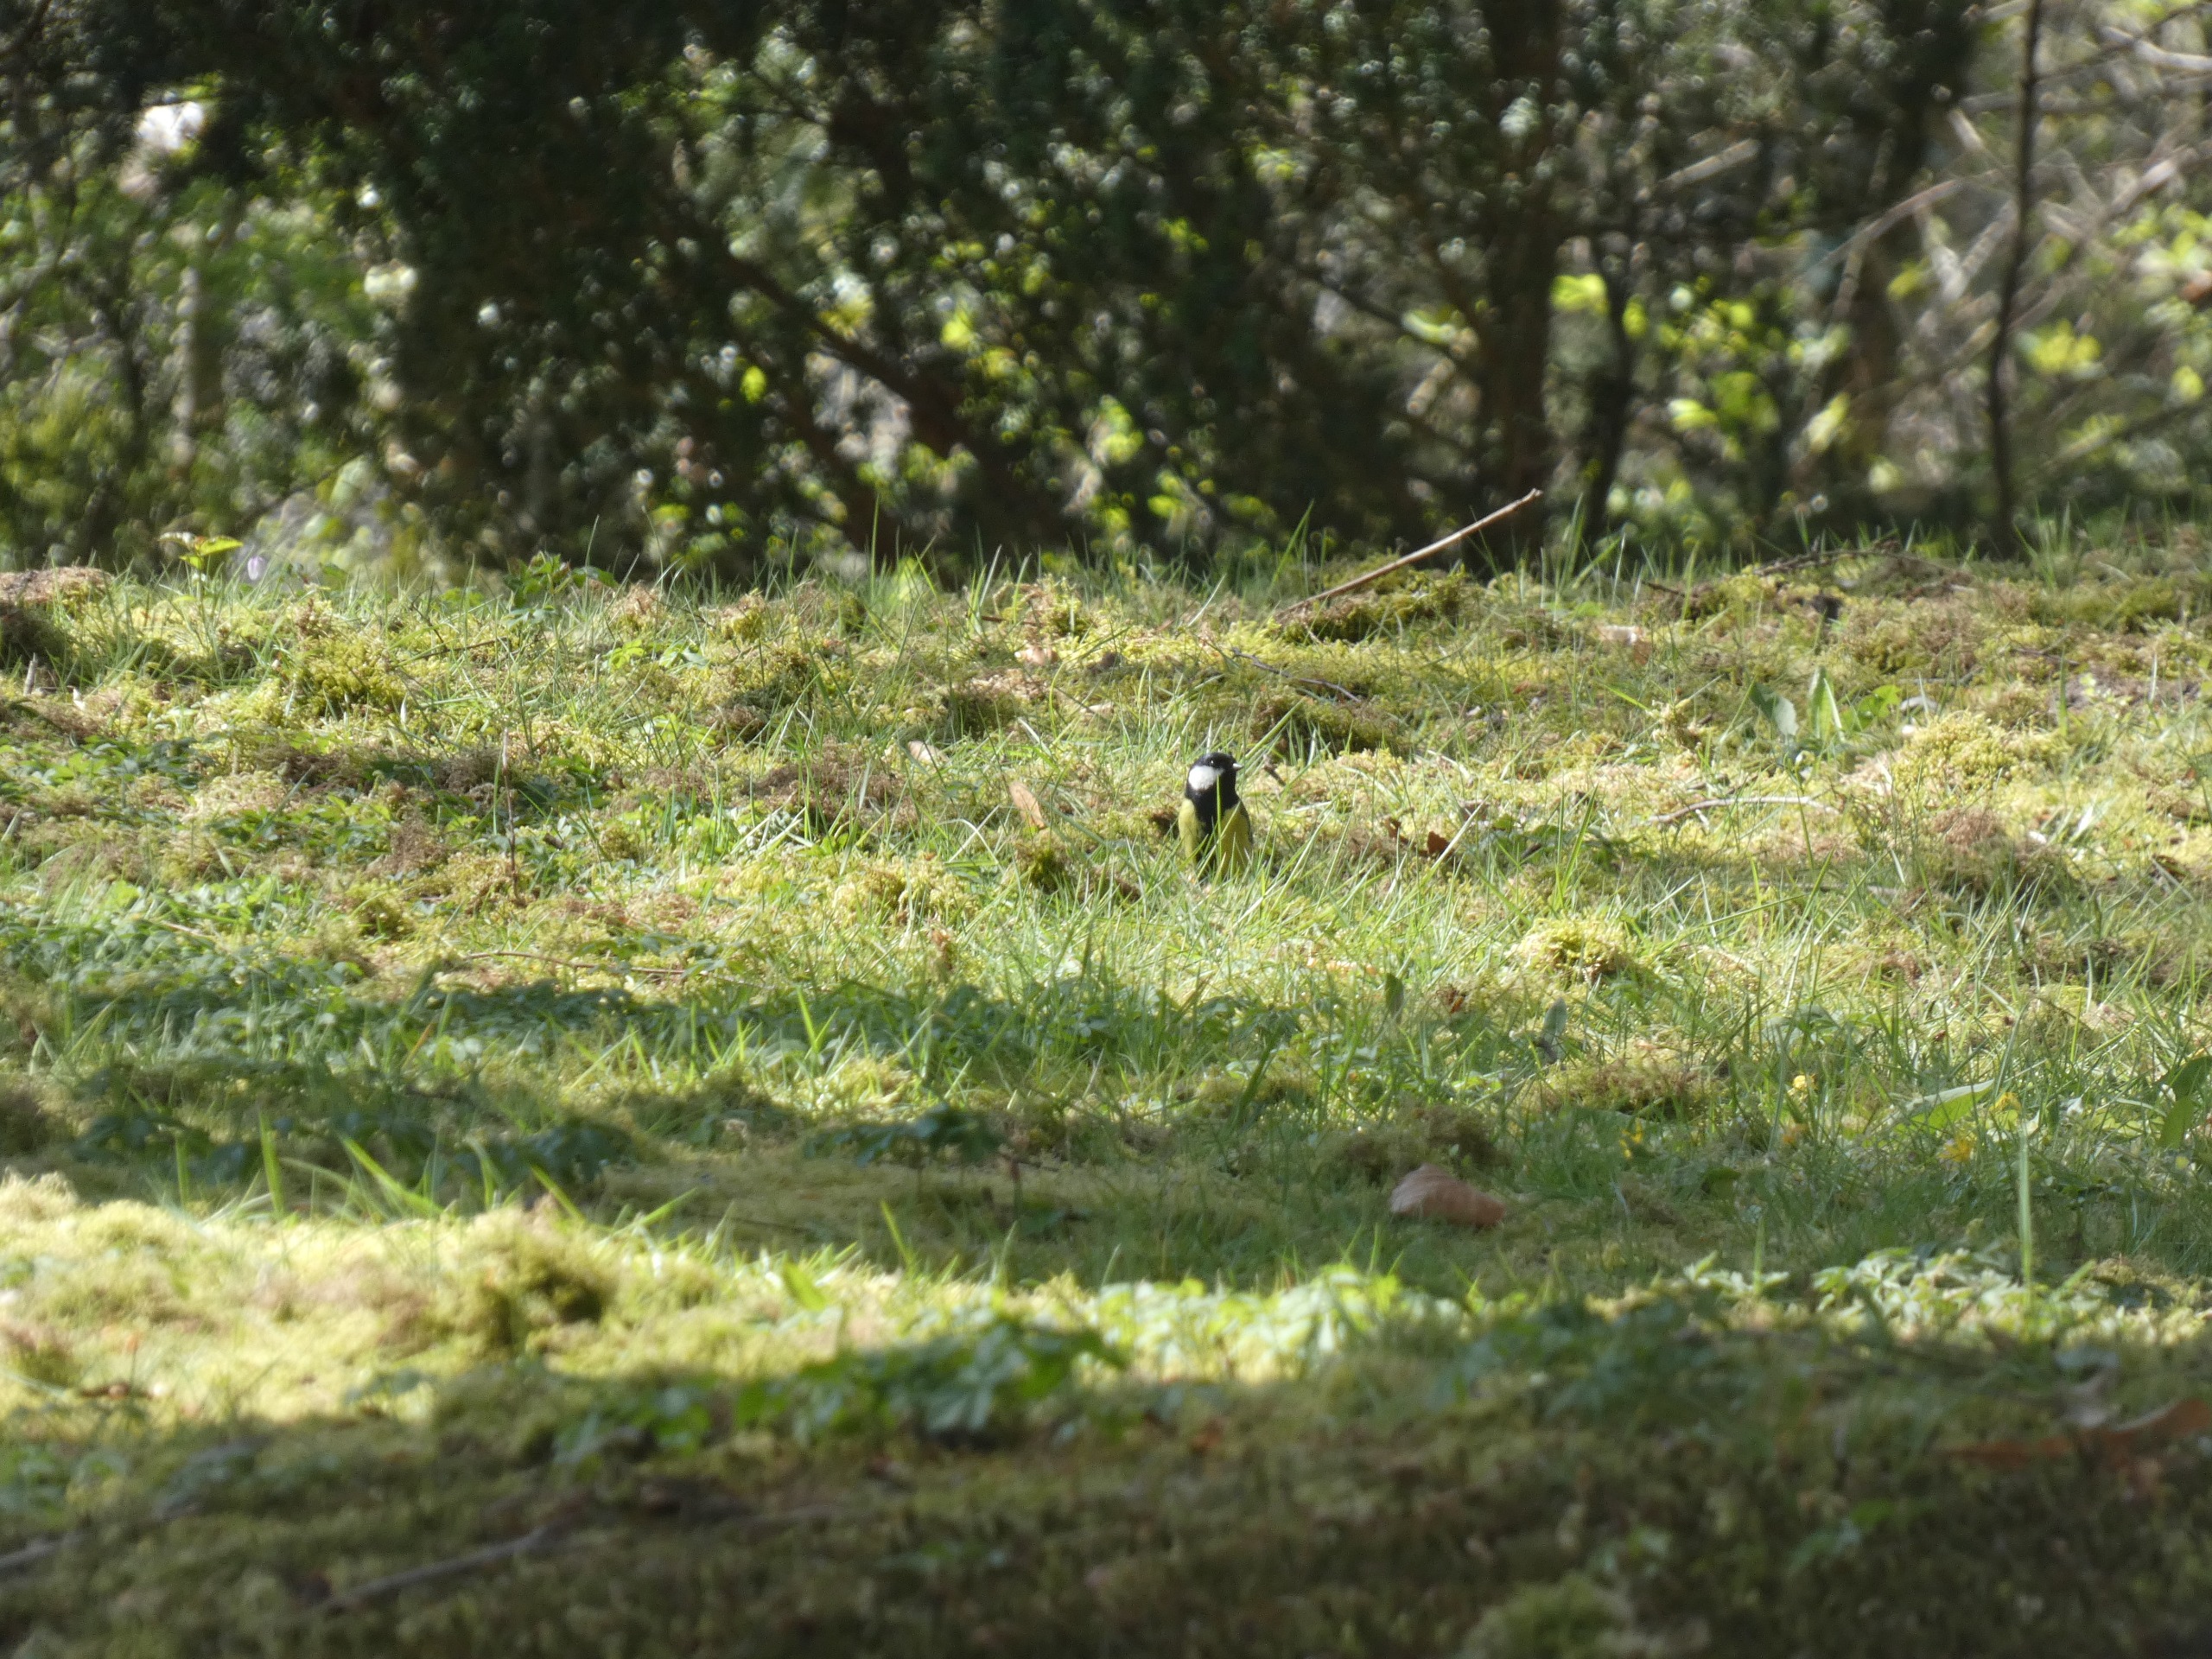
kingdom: Animalia
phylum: Chordata
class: Aves
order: Passeriformes
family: Paridae
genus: Parus
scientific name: Parus major
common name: Musvit
